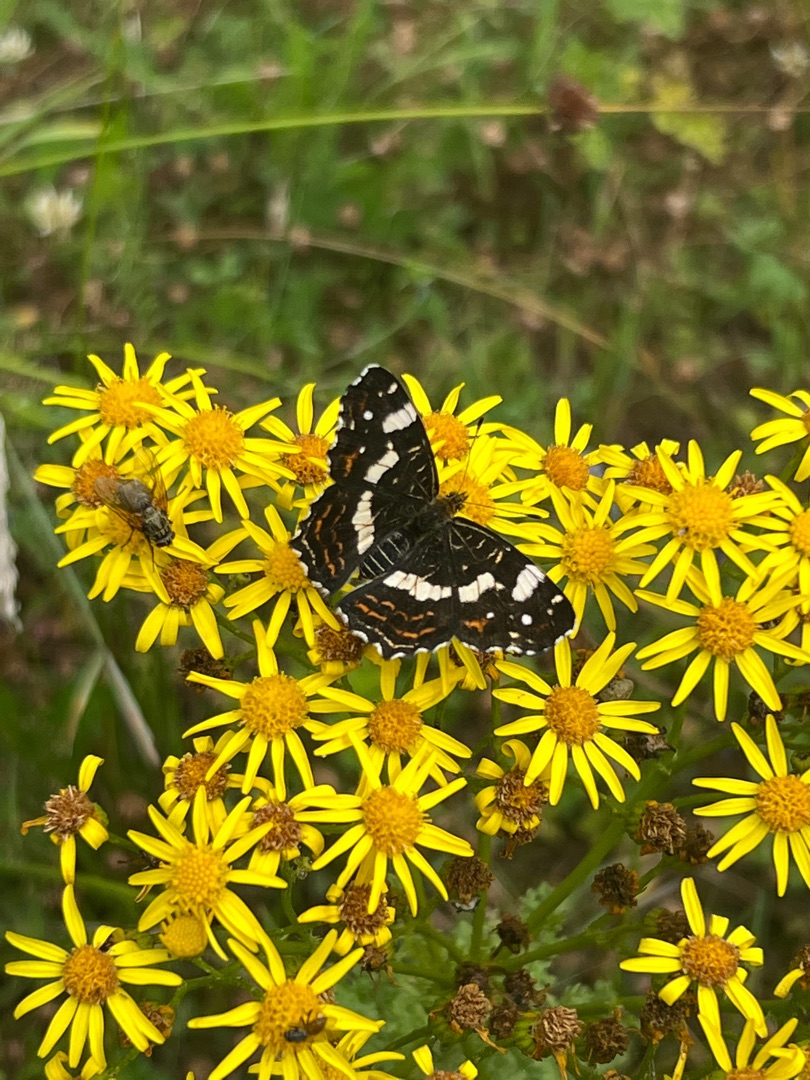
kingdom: Animalia
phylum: Arthropoda
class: Insecta
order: Lepidoptera
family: Nymphalidae
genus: Araschnia
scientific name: Araschnia levana
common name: Nældesommerfugl
